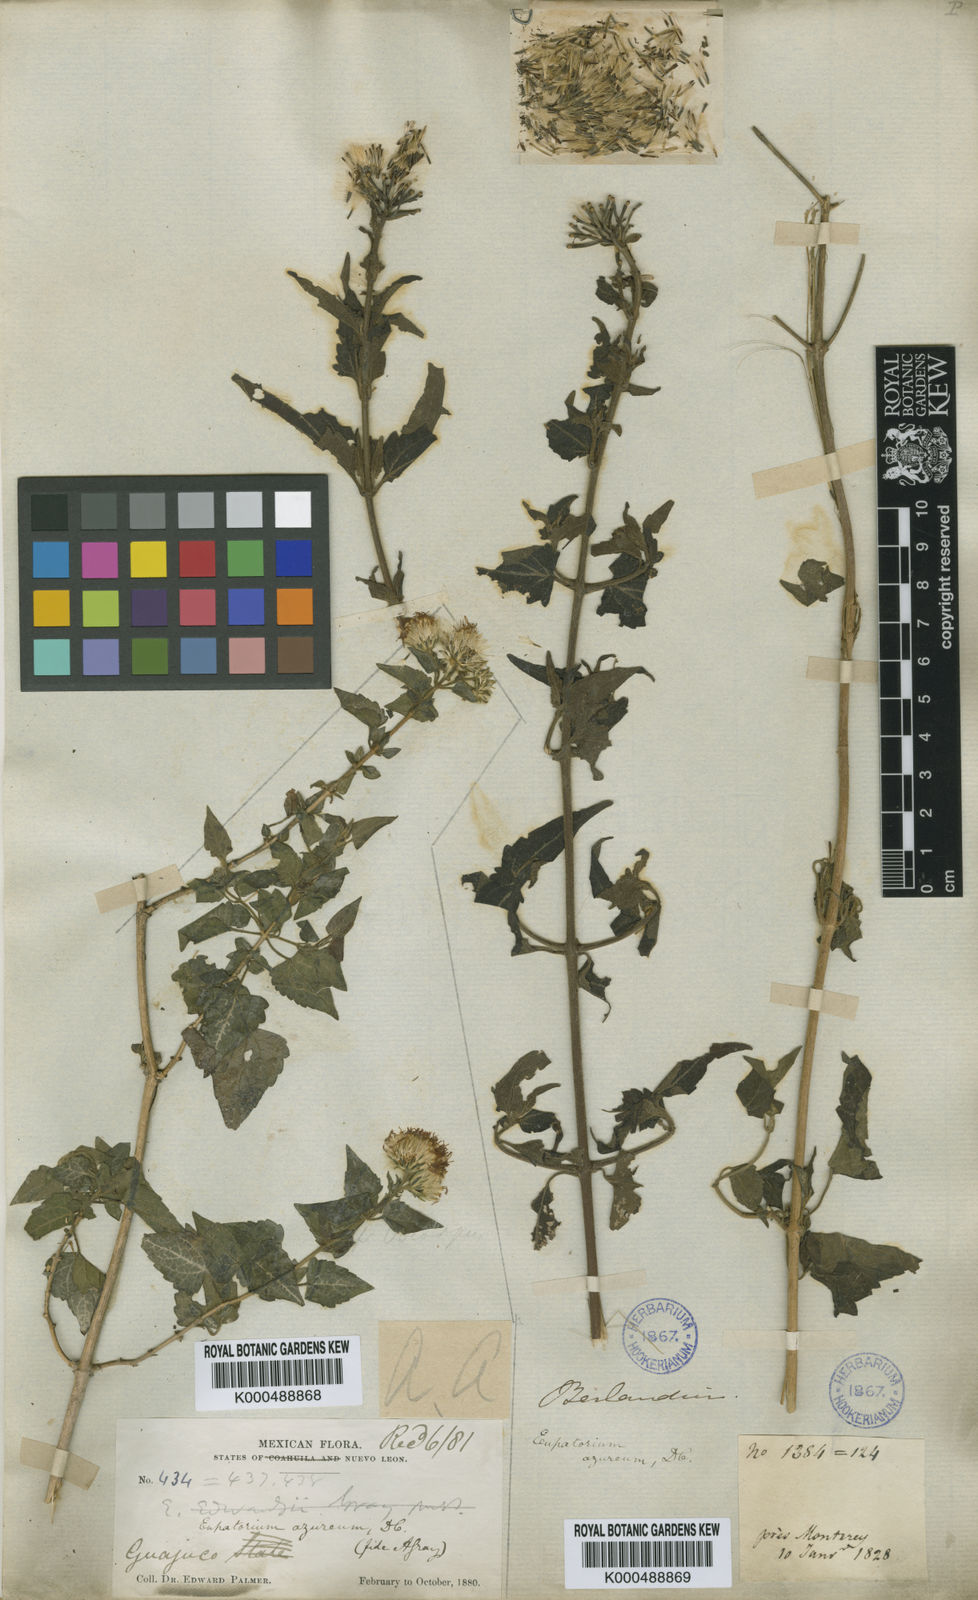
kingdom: Plantae
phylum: Tracheophyta
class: Magnoliopsida
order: Asterales
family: Asteraceae
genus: Tamaulipa
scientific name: Tamaulipa azurea
